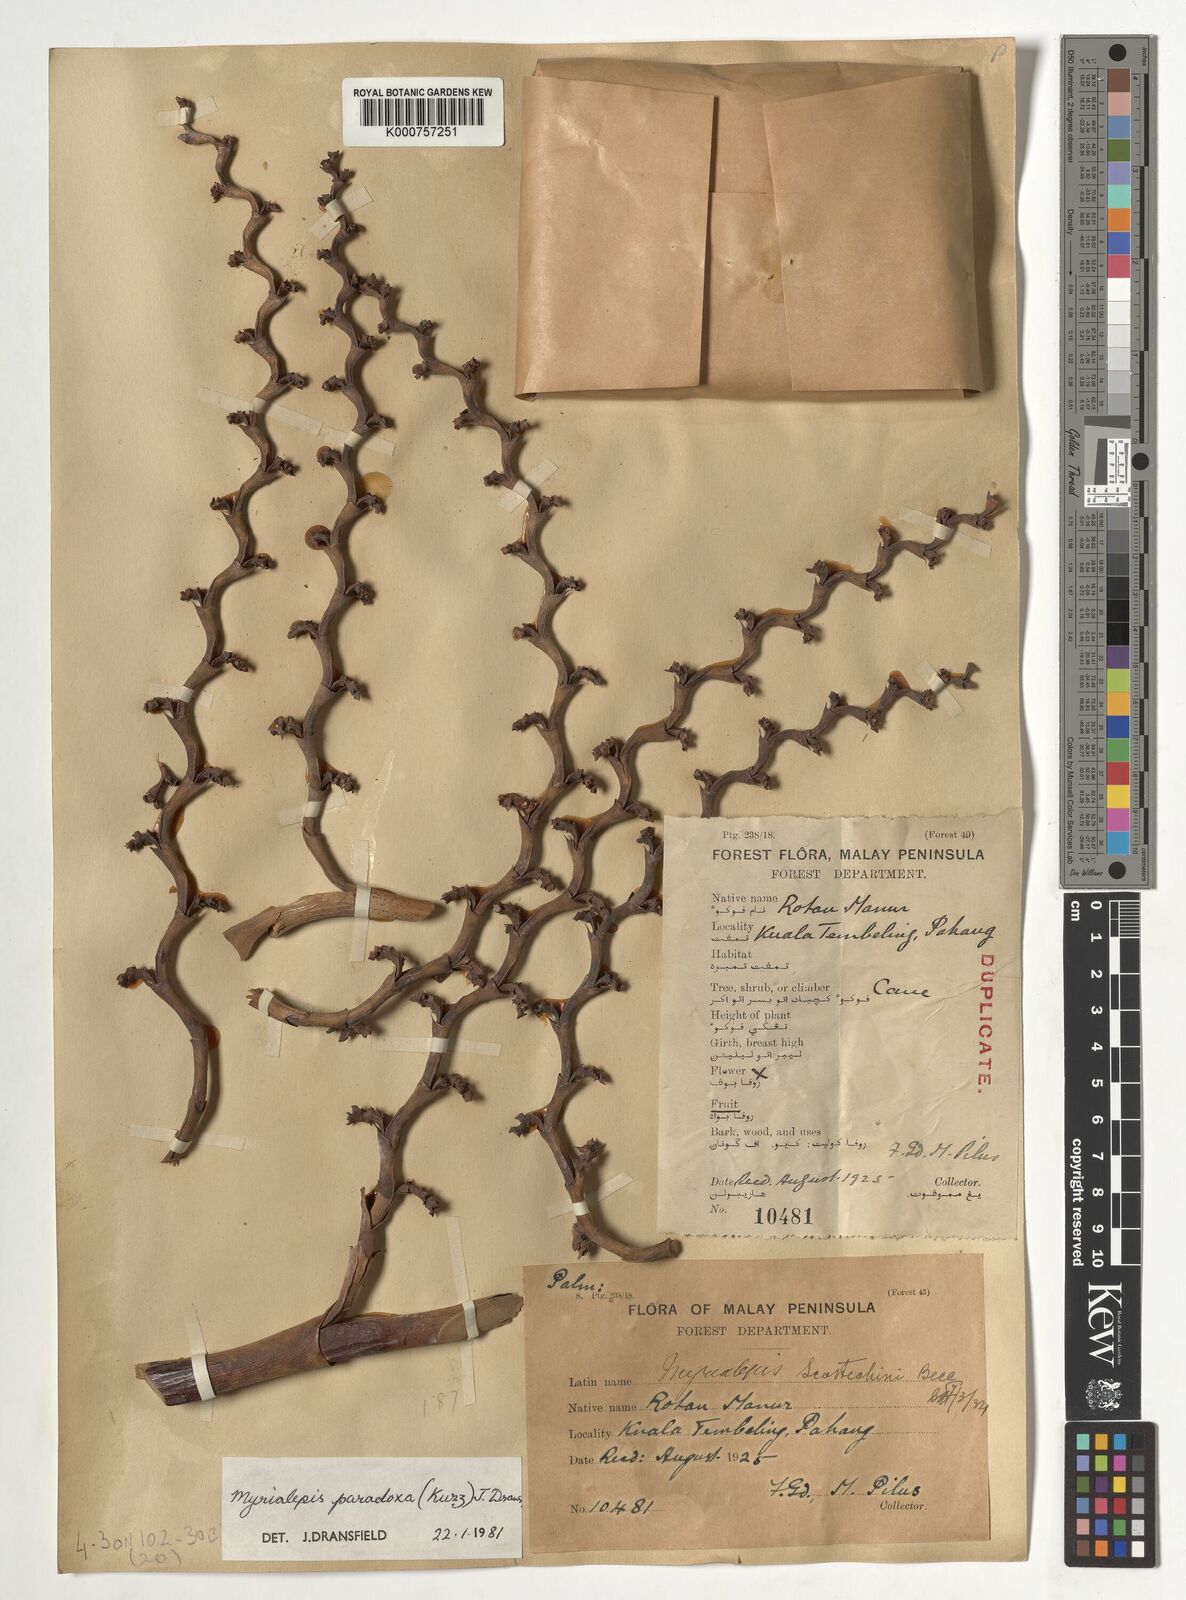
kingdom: Plantae
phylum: Tracheophyta
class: Liliopsida
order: Arecales
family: Arecaceae
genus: Myrialepis
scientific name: Myrialepis paradoxa
